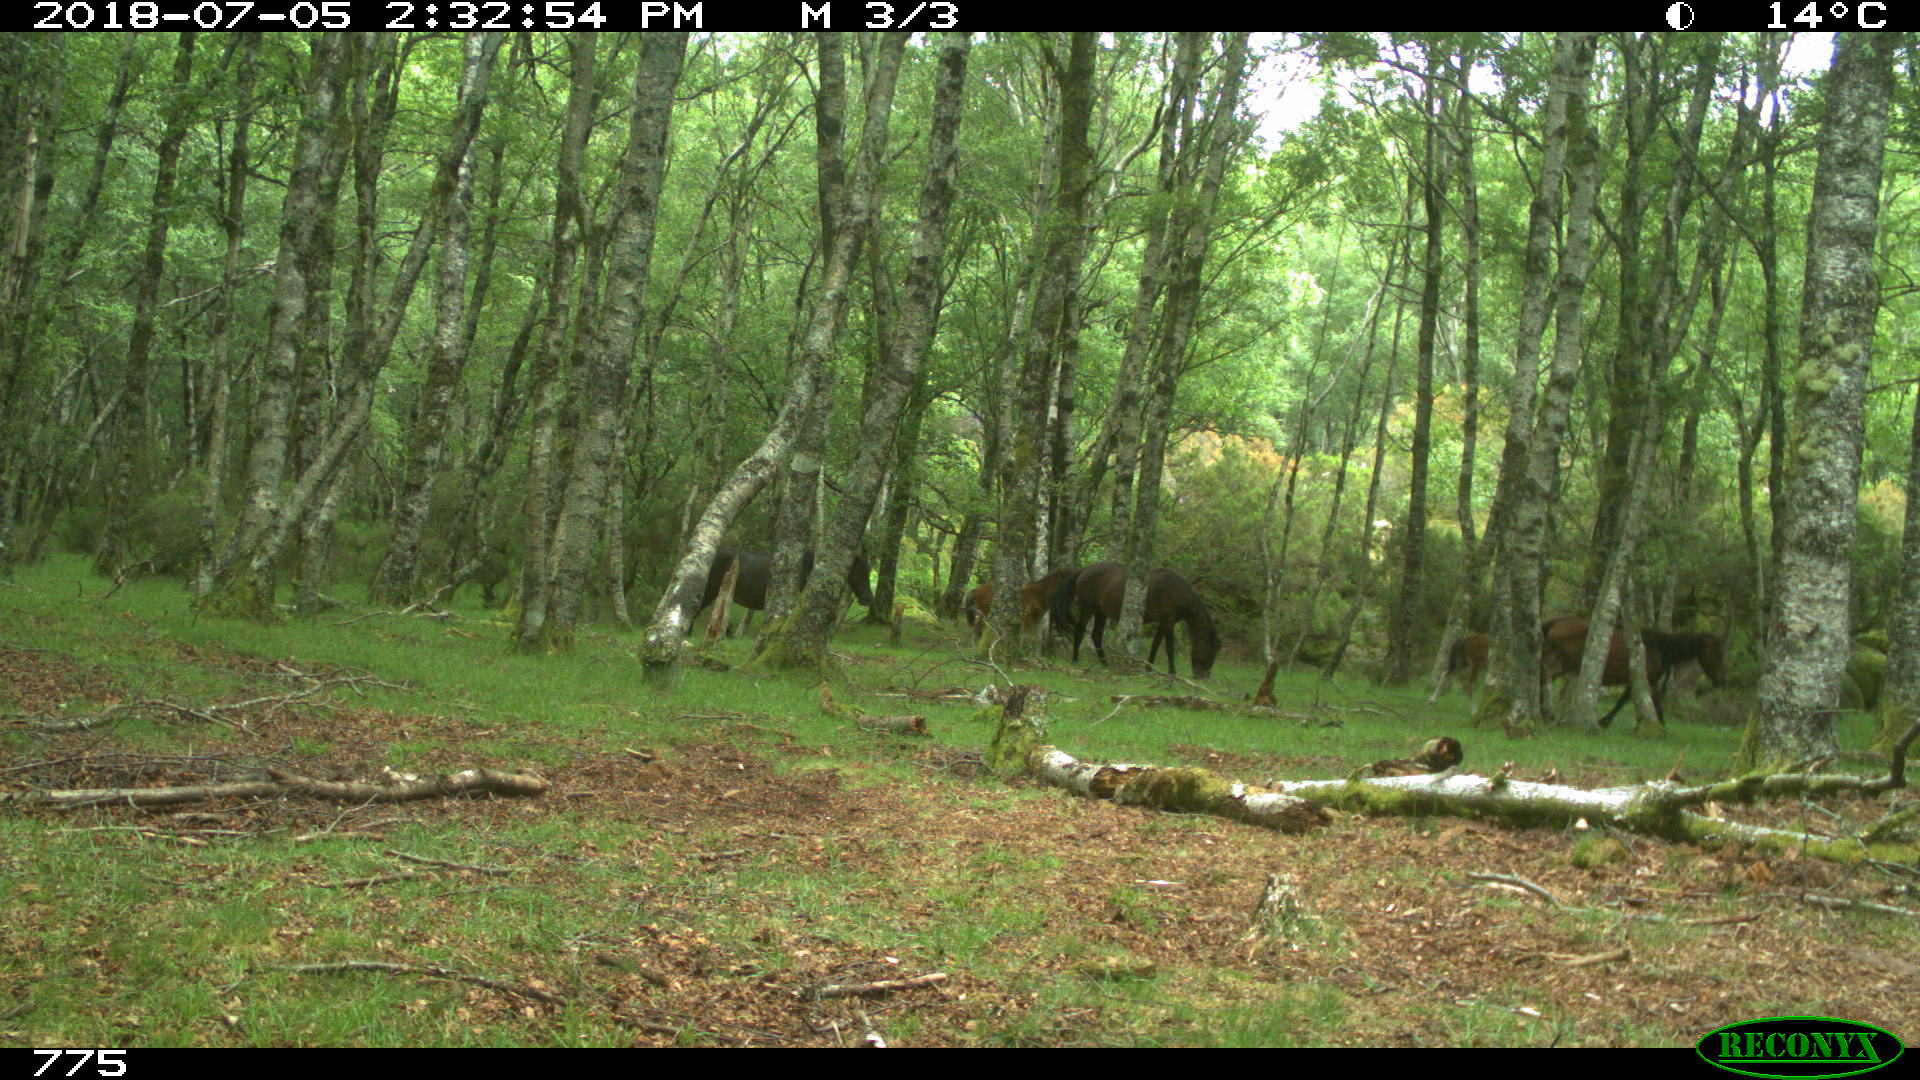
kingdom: Animalia
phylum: Chordata
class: Mammalia
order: Perissodactyla
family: Equidae
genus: Equus
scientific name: Equus caballus
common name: Horse
